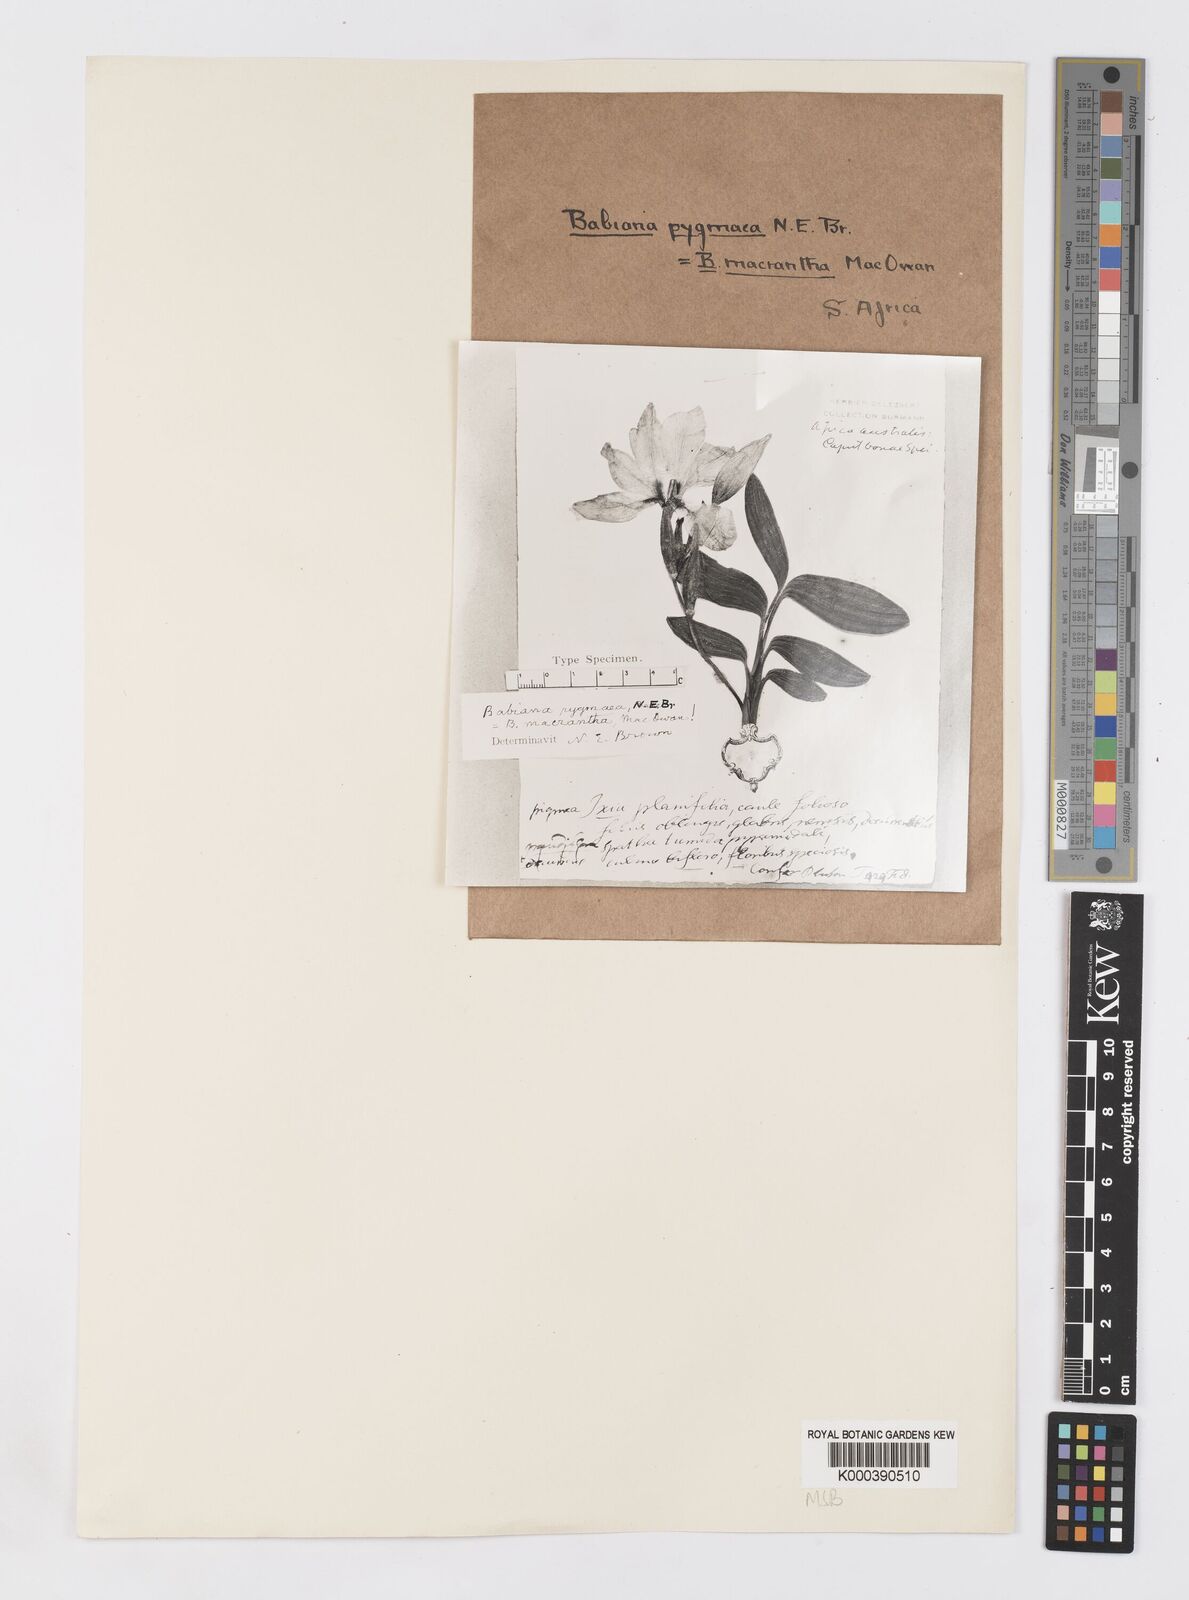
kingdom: Plantae
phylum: Tracheophyta
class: Liliopsida
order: Asparagales
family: Iridaceae
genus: Babiana
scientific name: Babiana pygmaea
